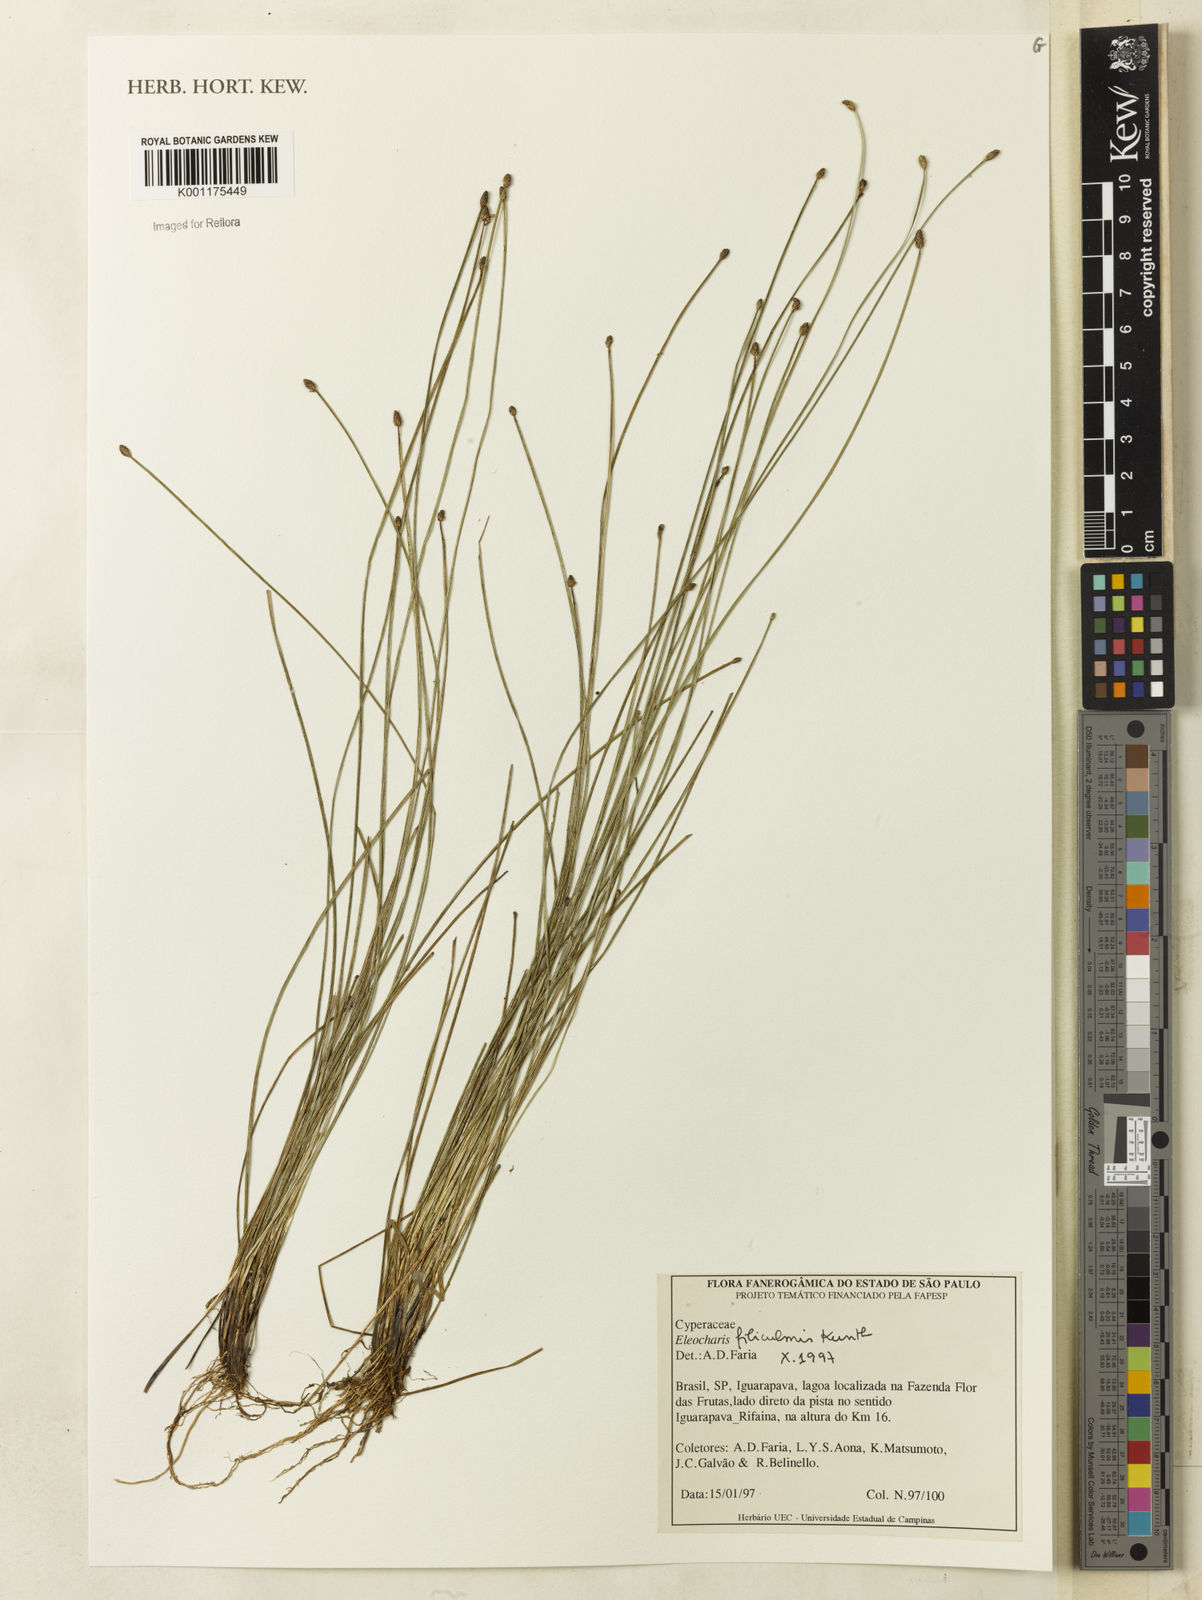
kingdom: Plantae
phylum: Tracheophyta
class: Liliopsida
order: Poales
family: Cyperaceae
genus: Eleocharis
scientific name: Eleocharis filiculmis
